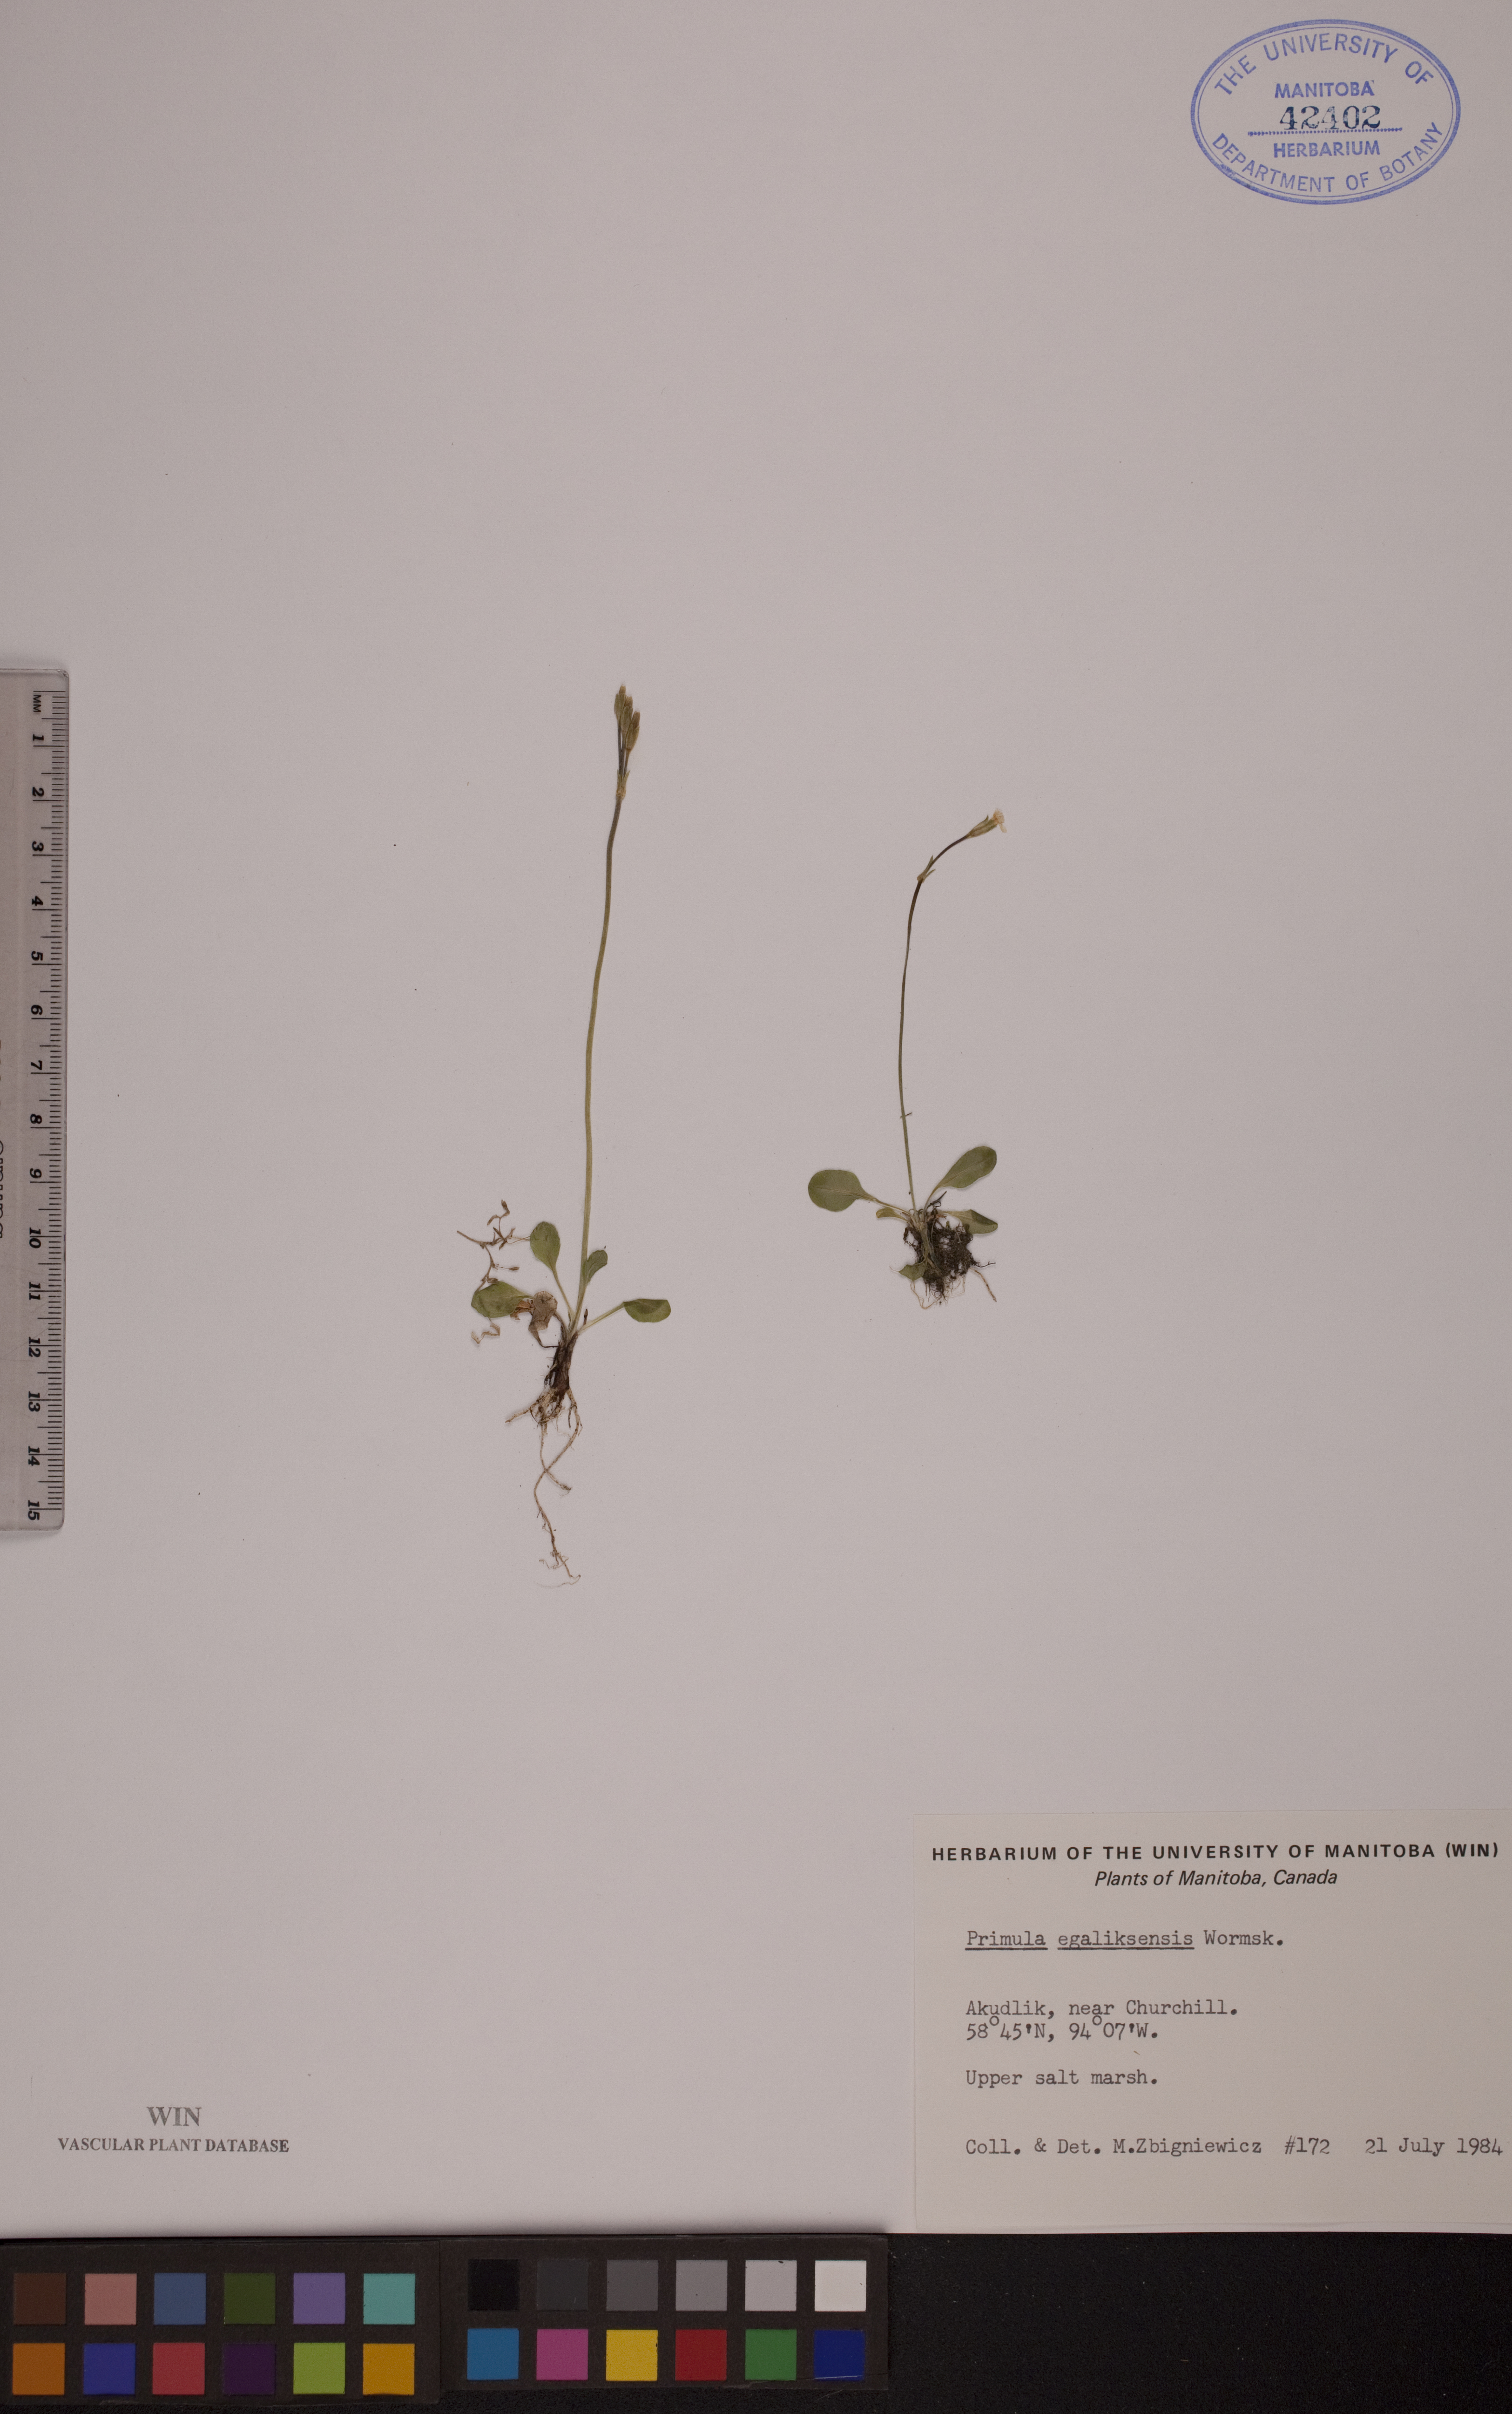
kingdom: Plantae
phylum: Tracheophyta
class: Magnoliopsida
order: Ericales
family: Primulaceae
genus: Primula
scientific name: Primula egaliksensis
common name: Greenland primrose
